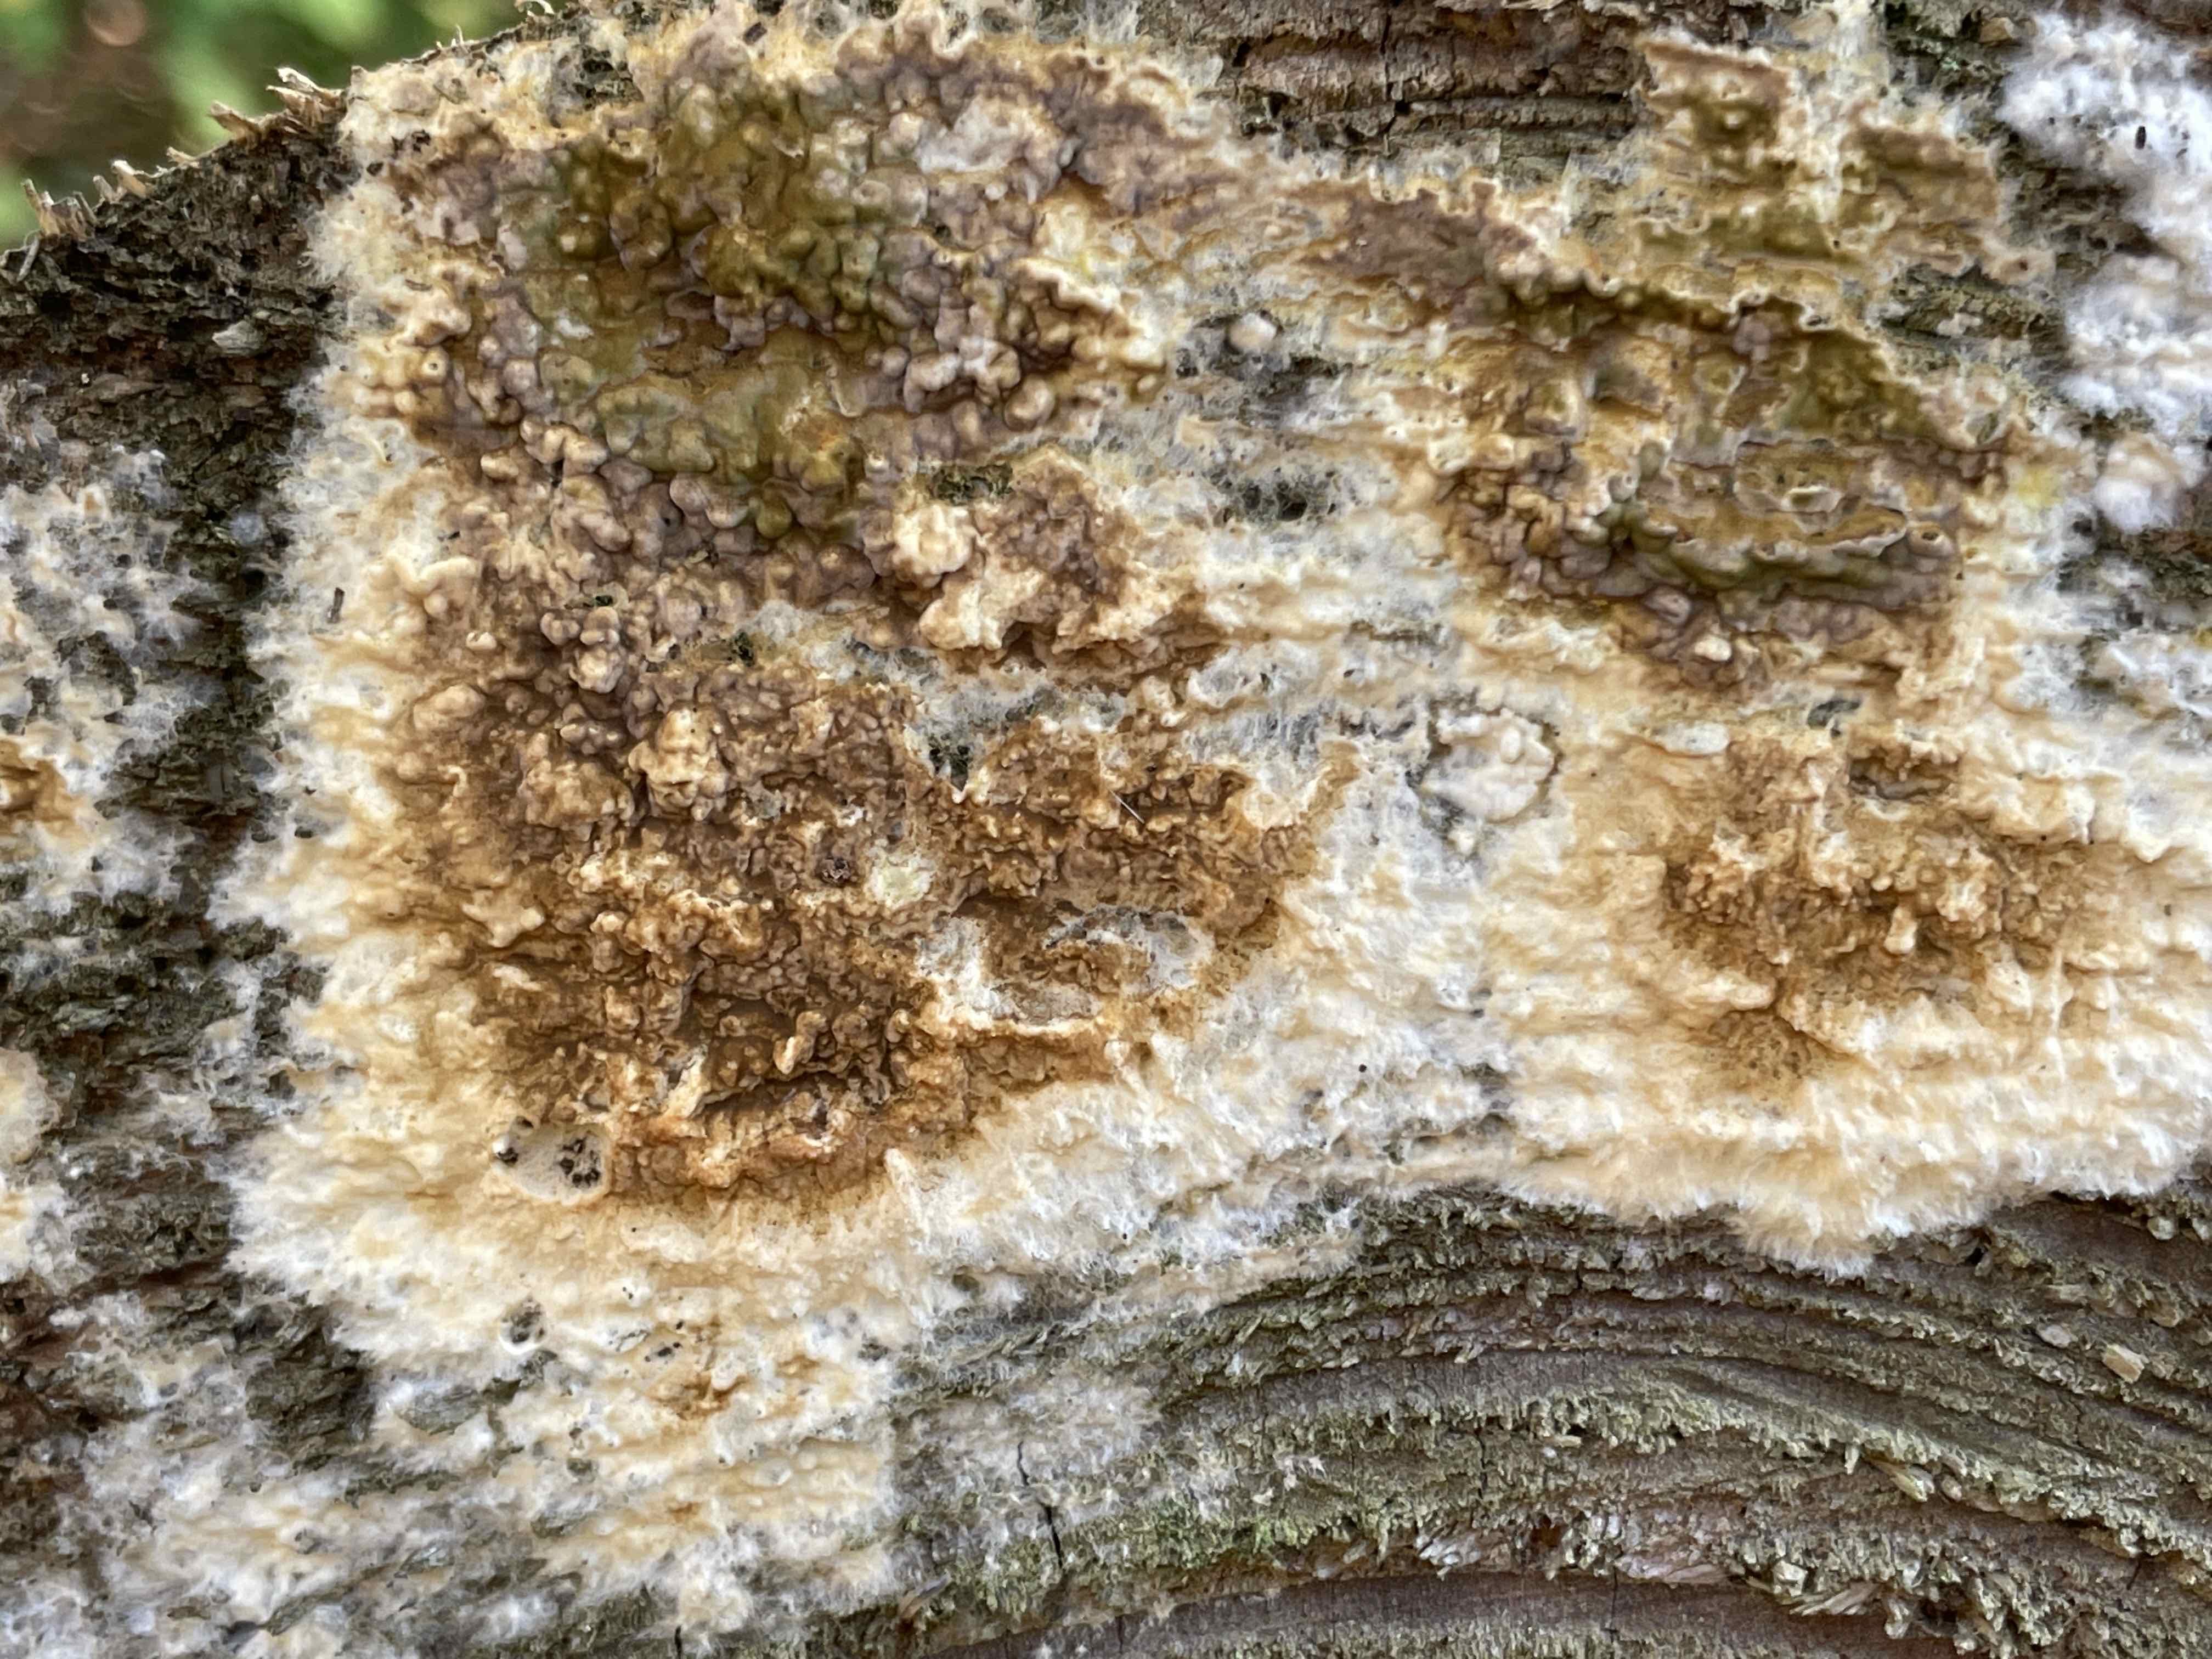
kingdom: Fungi
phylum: Basidiomycota
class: Agaricomycetes
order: Boletales
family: Coniophoraceae
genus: Coniophora
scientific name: Coniophora puteana
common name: gul tømmersvamp
